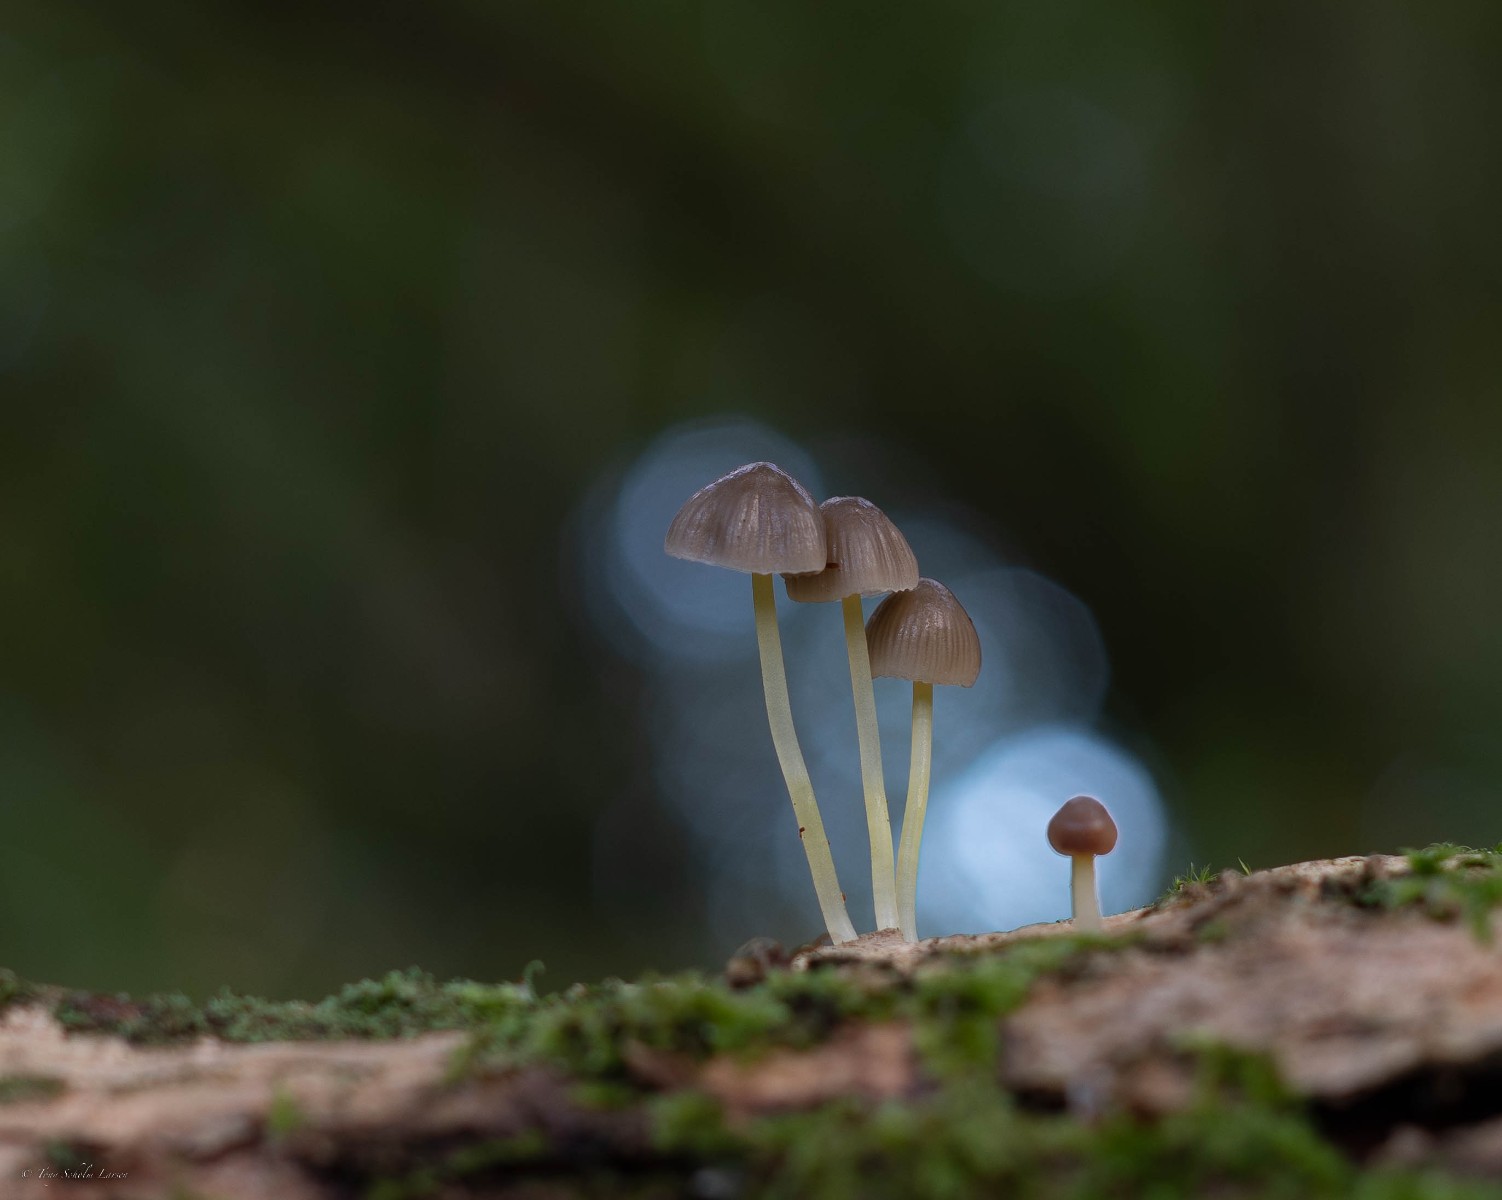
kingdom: Fungi
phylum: Basidiomycota
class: Agaricomycetes
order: Agaricales
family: Mycenaceae
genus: Mycena
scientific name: Mycena
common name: huesvamp
